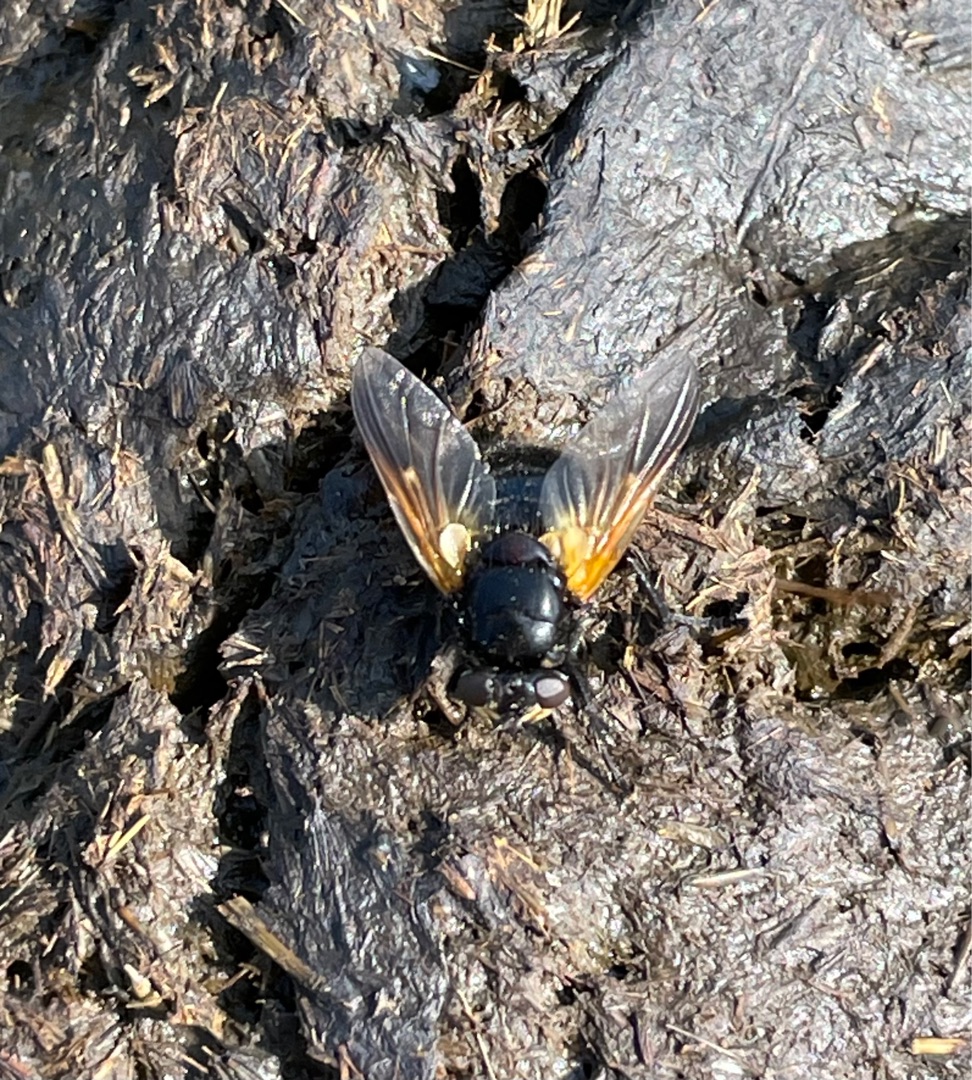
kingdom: Animalia
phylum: Arthropoda
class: Insecta
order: Diptera
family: Muscidae
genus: Mesembrina
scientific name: Mesembrina meridiana
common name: Gulvinget flue
